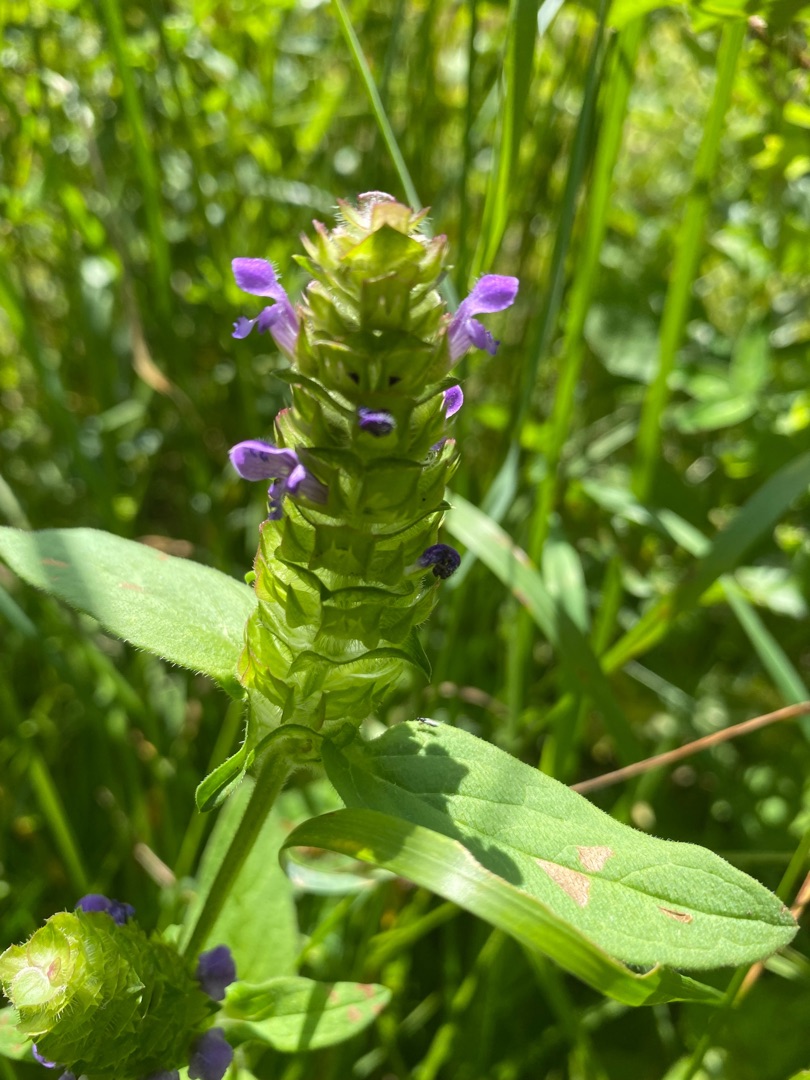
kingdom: Plantae
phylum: Tracheophyta
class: Magnoliopsida
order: Lamiales
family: Lamiaceae
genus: Prunella
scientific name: Prunella vulgaris
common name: Almindelig brunelle
